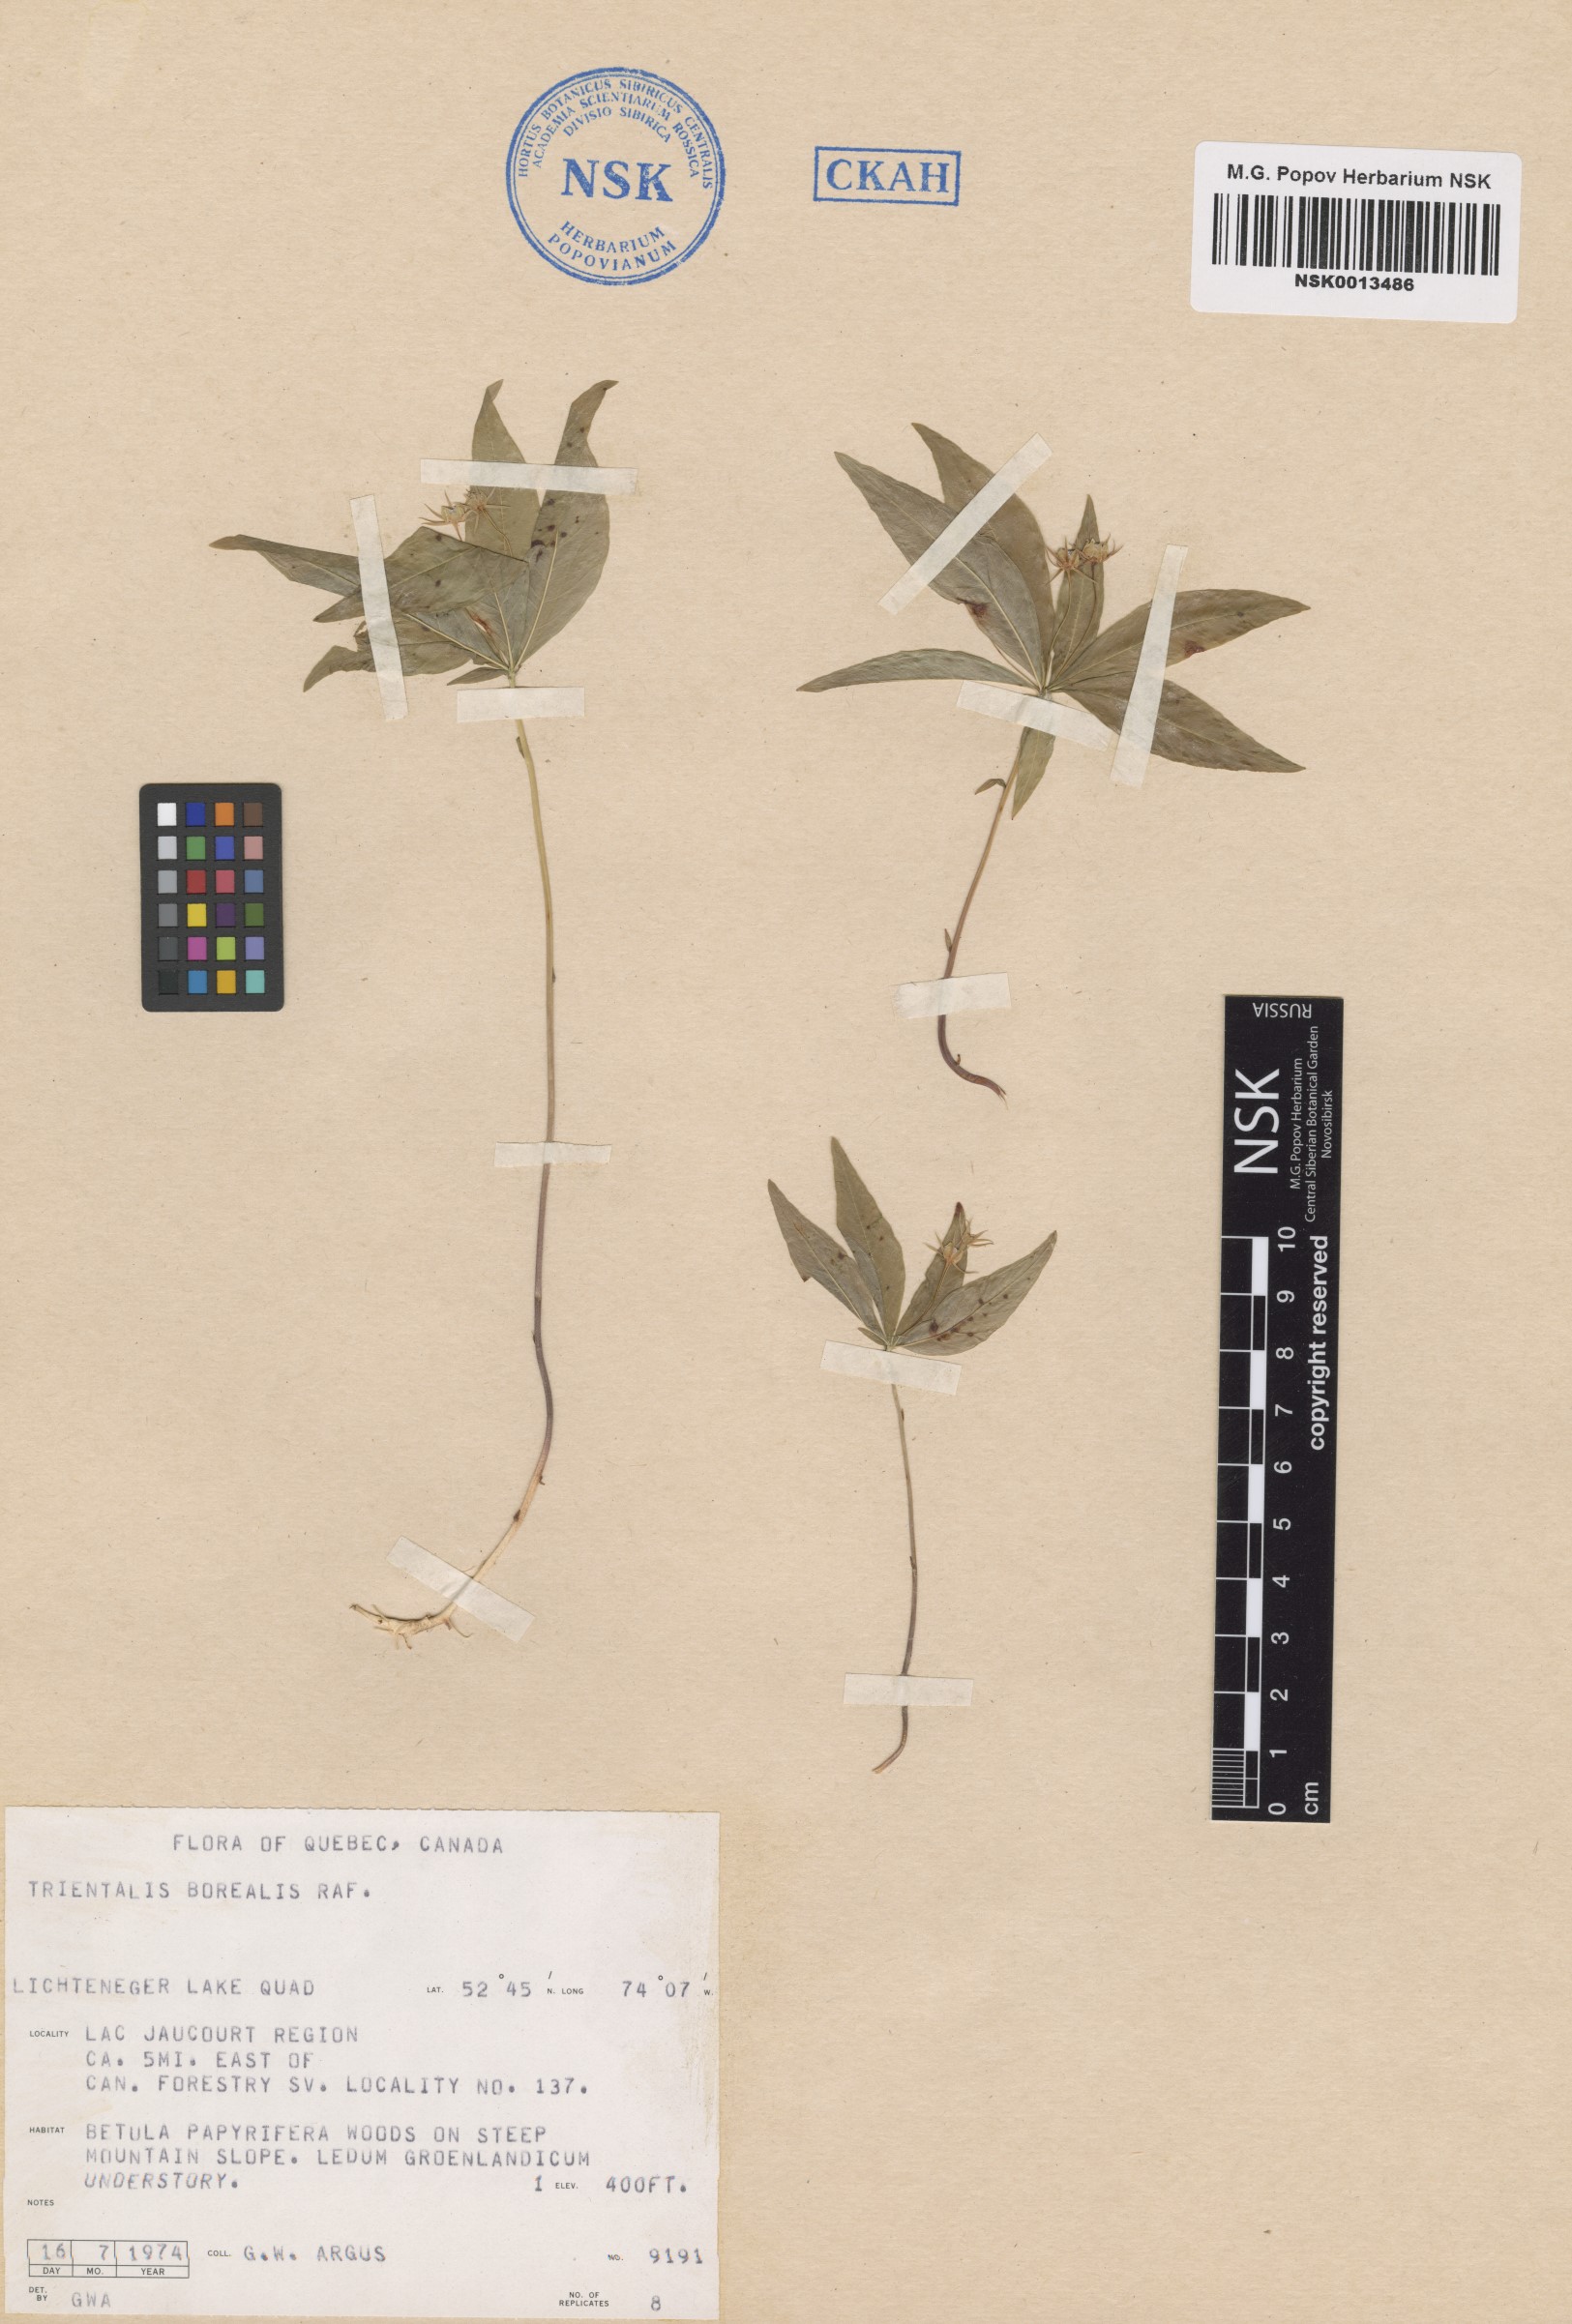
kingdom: Plantae
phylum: Tracheophyta
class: Magnoliopsida
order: Ericales
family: Primulaceae
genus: Lysimachia
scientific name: Lysimachia borealis
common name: American starflower
